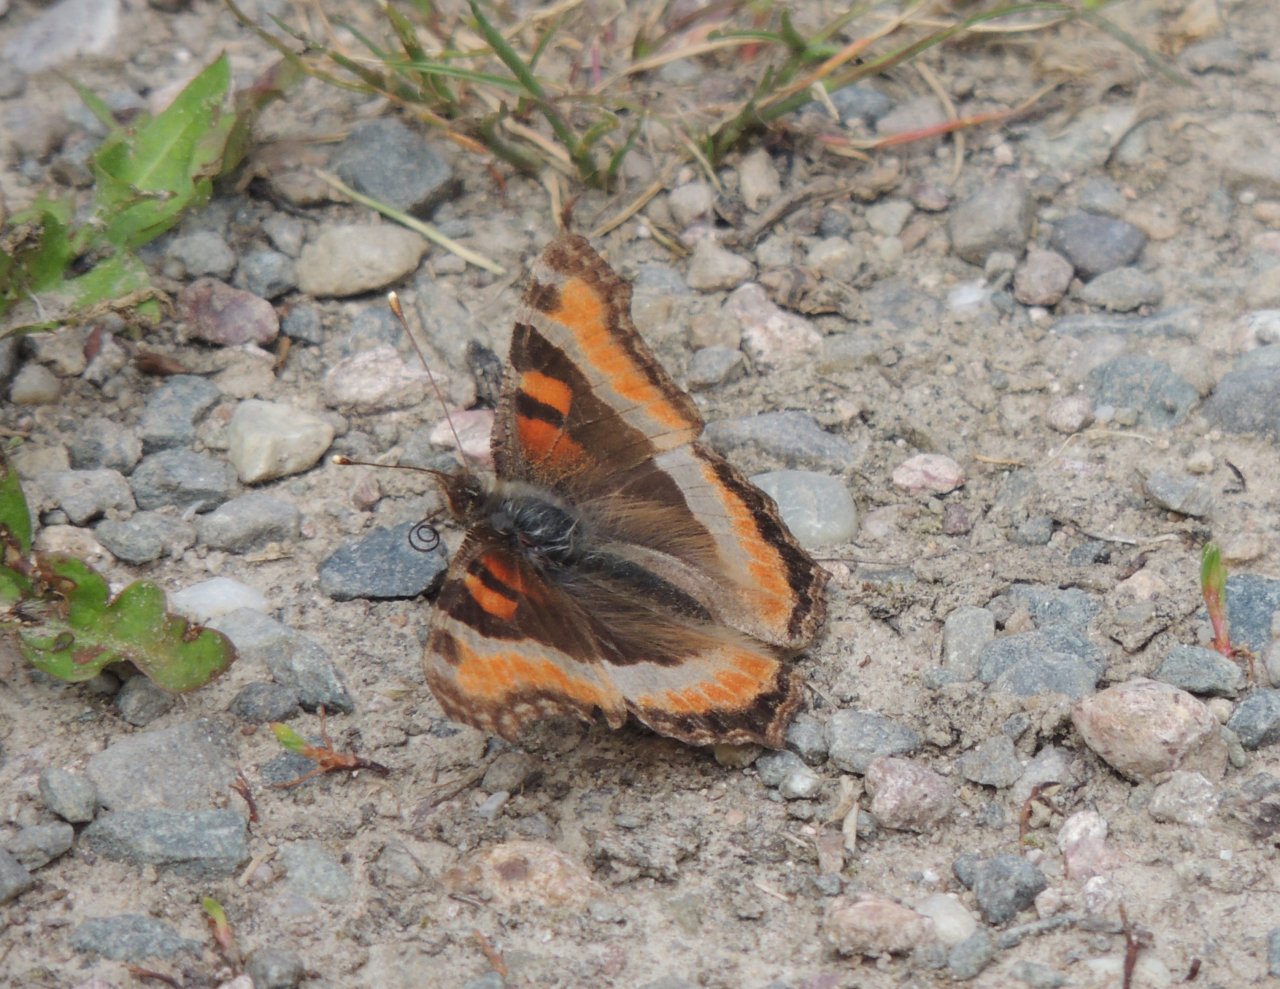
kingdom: Animalia
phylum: Arthropoda
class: Insecta
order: Lepidoptera
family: Nymphalidae
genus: Aglais
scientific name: Aglais milberti
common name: Milbert's Tortoiseshell
